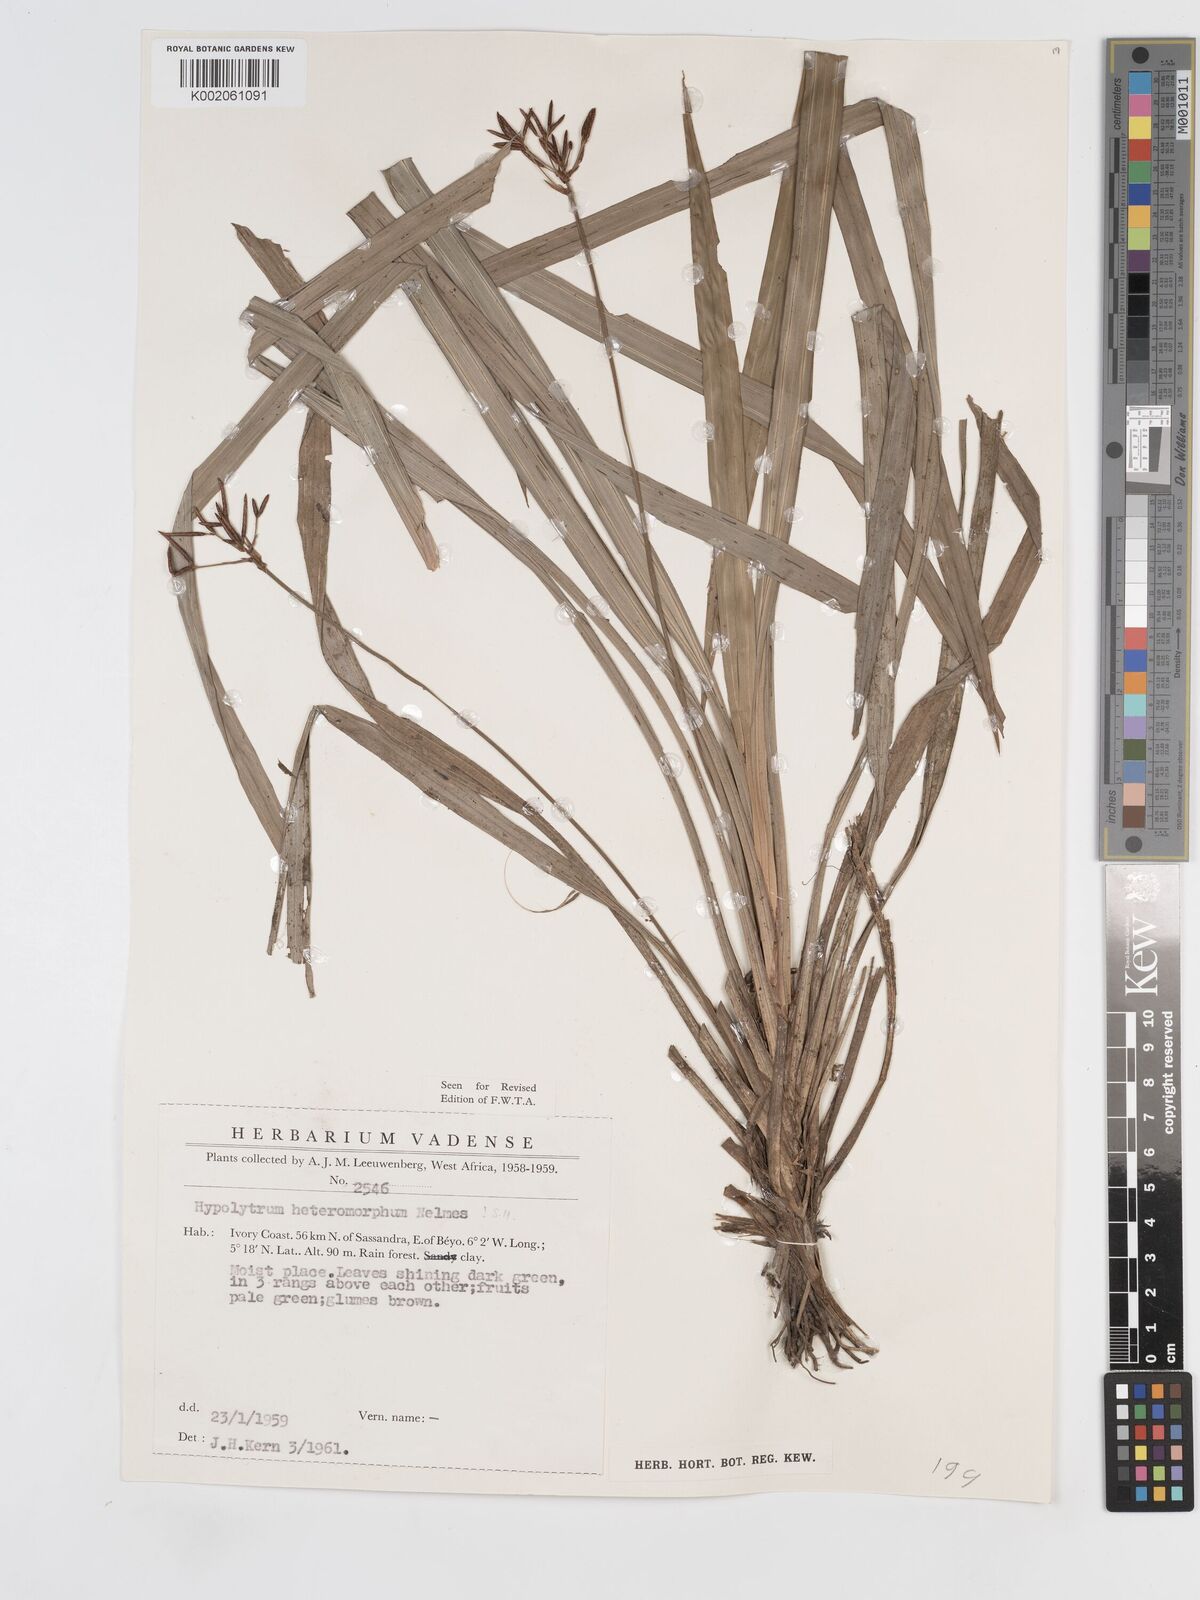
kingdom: Plantae
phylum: Tracheophyta
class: Liliopsida
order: Poales
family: Cyperaceae
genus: Hypolytrum
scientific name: Hypolytrum heteromorphum
